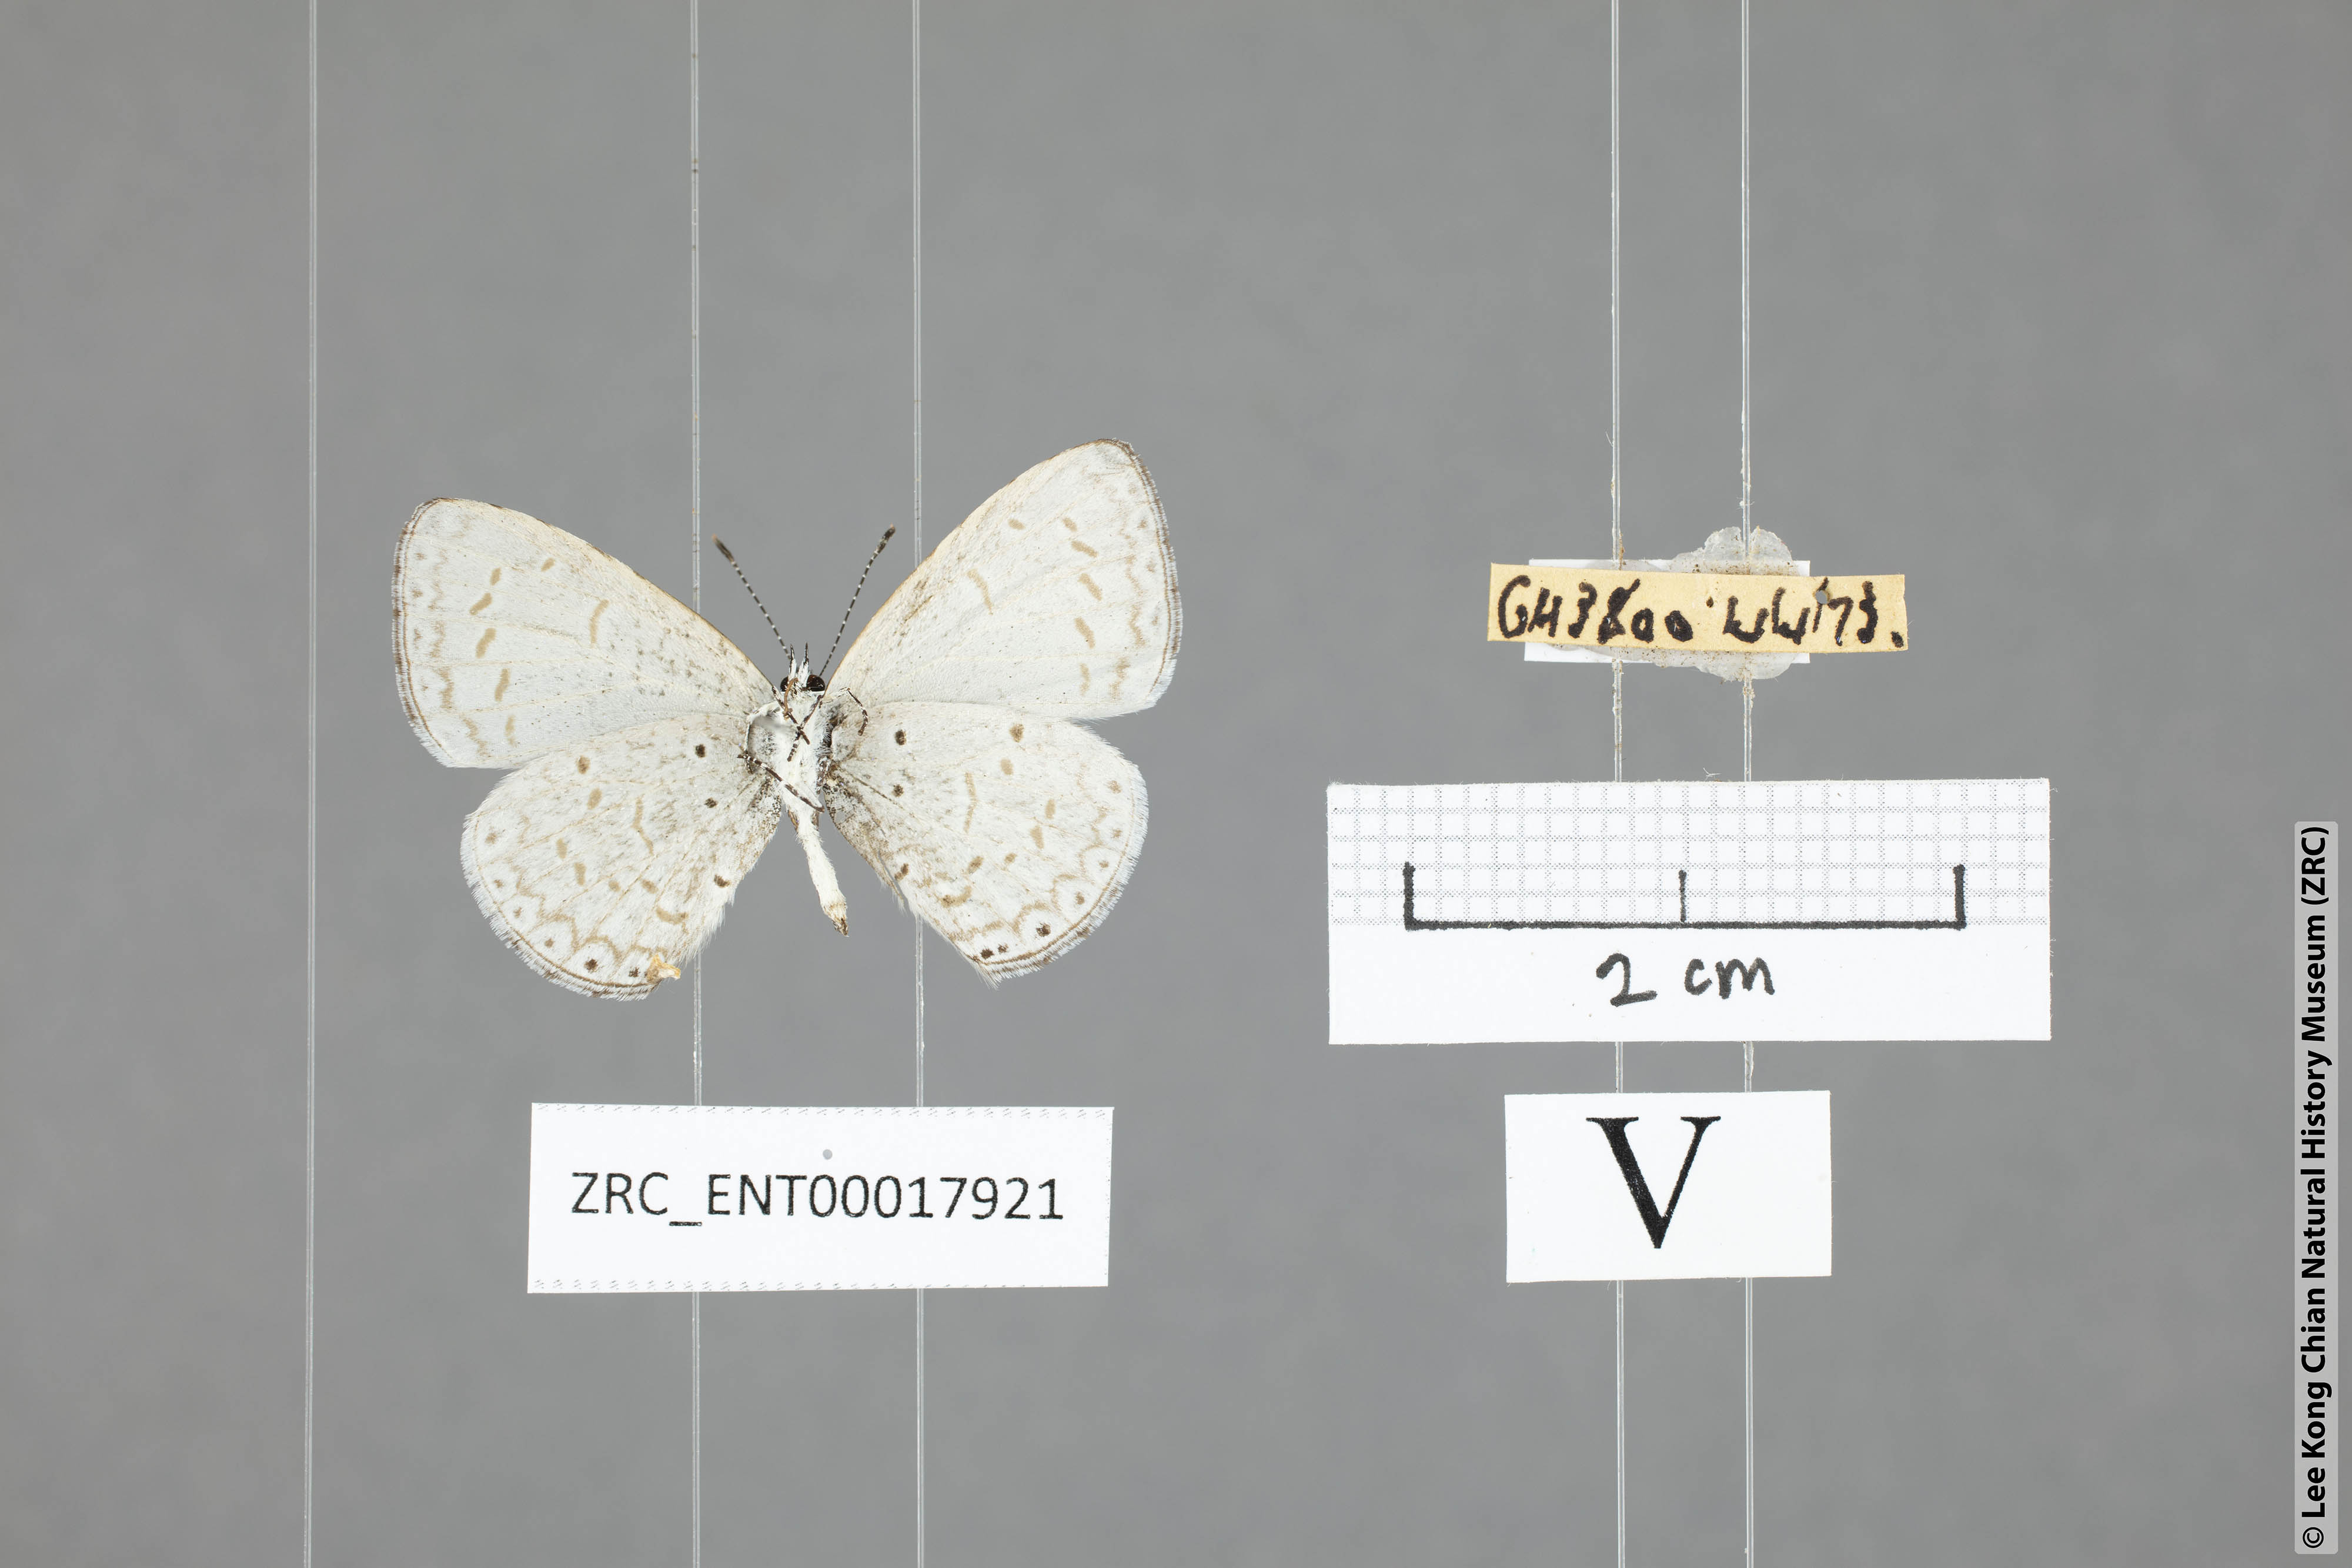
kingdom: Animalia
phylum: Arthropoda
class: Insecta
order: Lepidoptera
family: Lycaenidae
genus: Udara
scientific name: Udara
